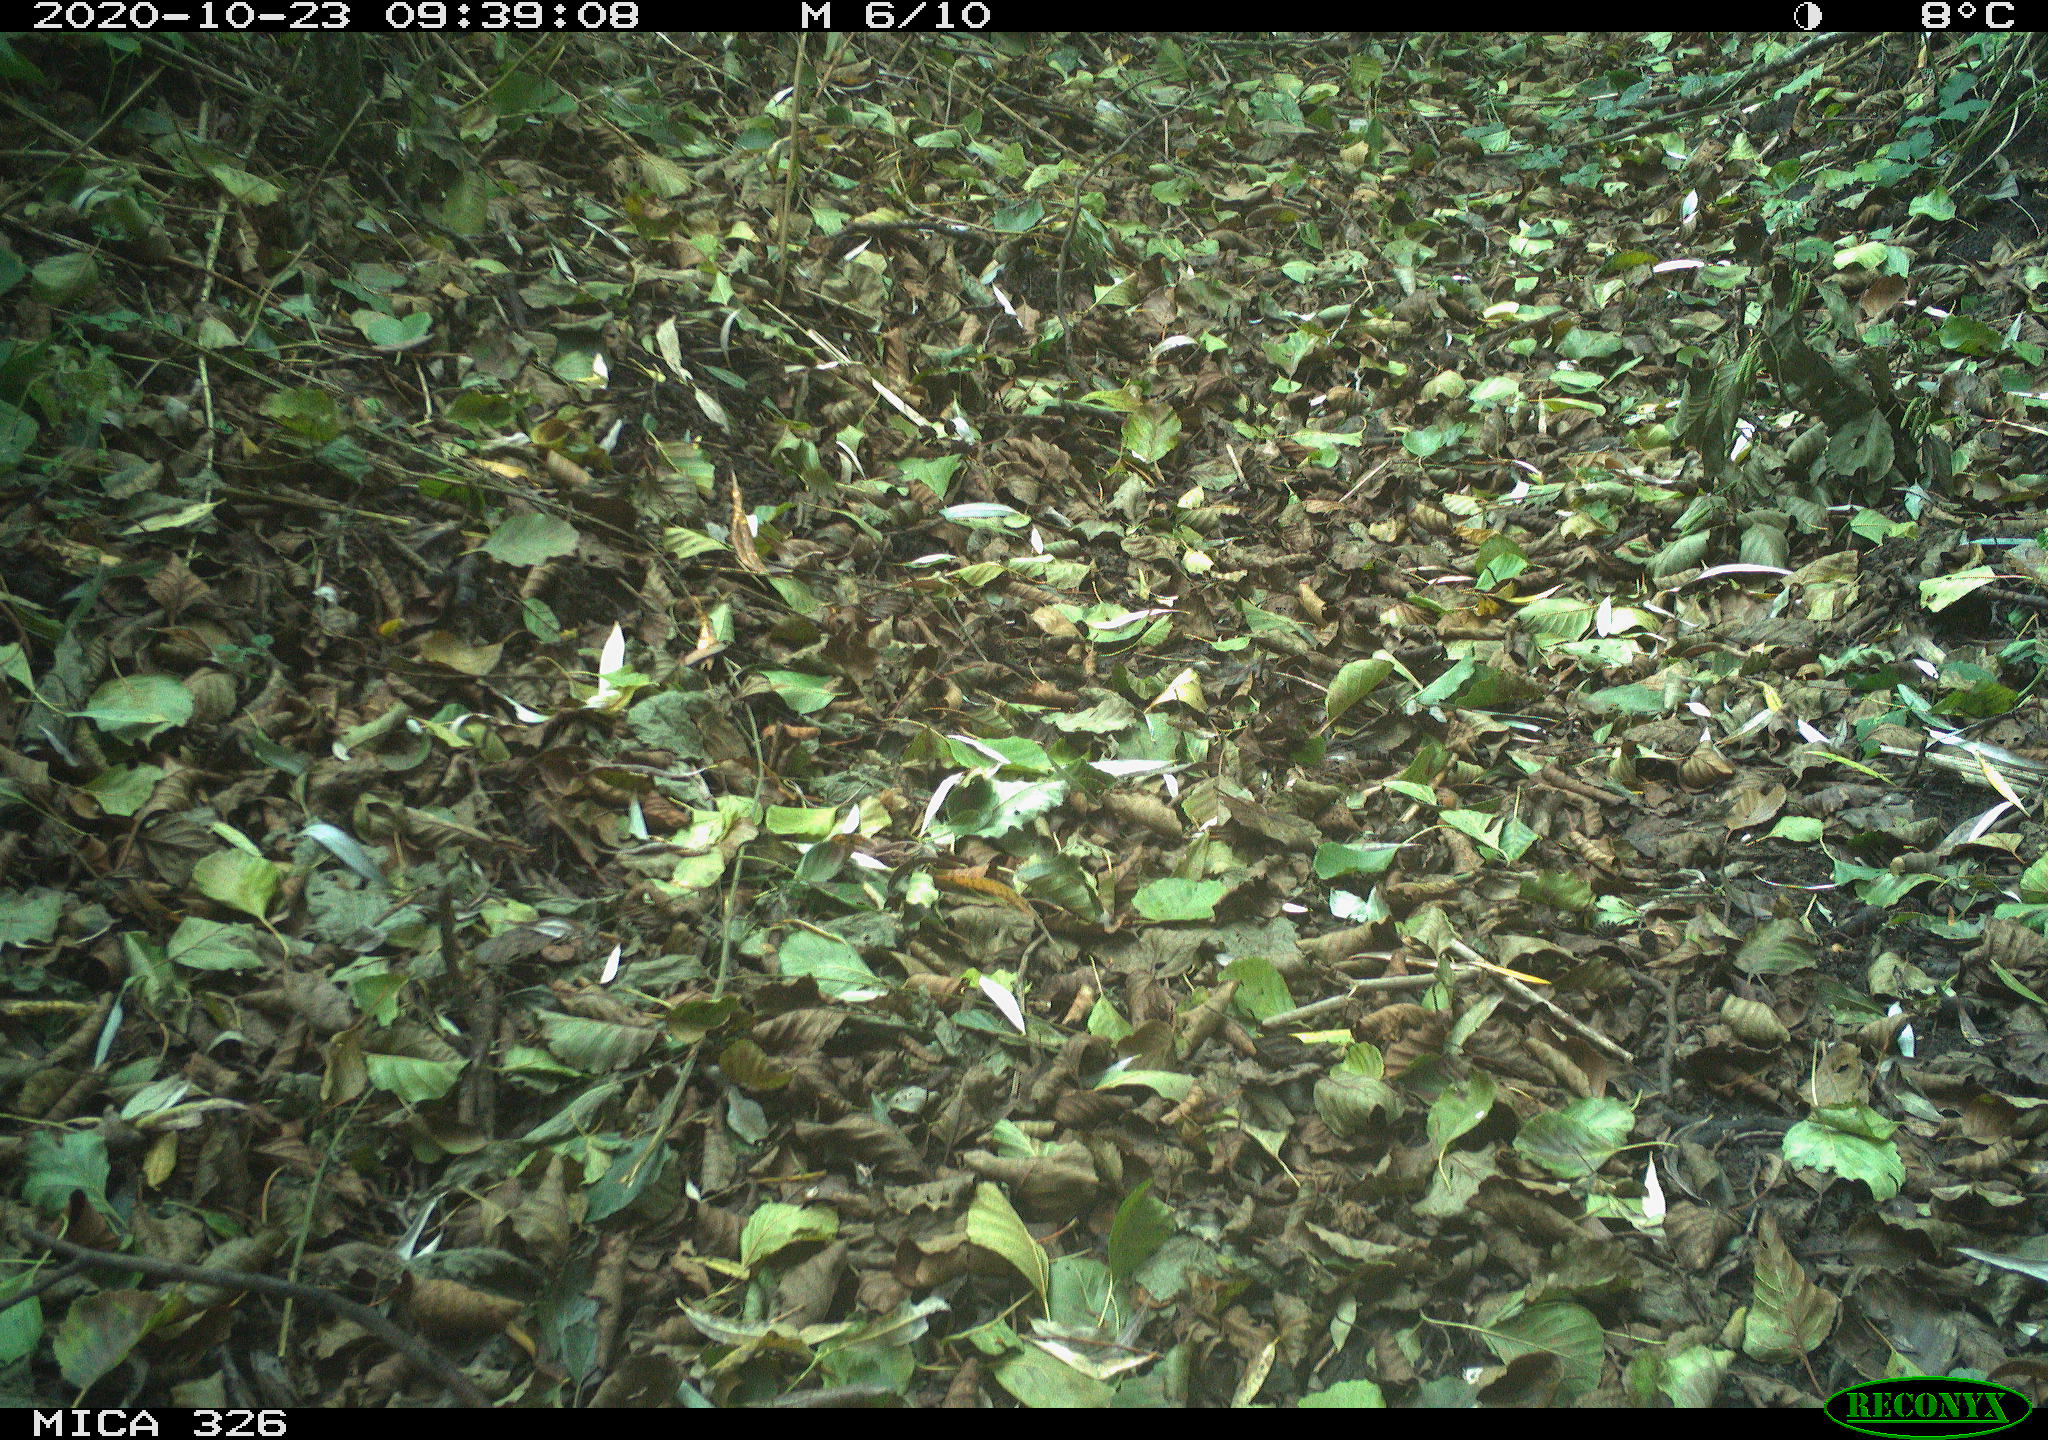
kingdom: Animalia
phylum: Chordata
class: Aves
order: Gruiformes
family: Rallidae
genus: Gallinula
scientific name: Gallinula chloropus
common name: Common moorhen
